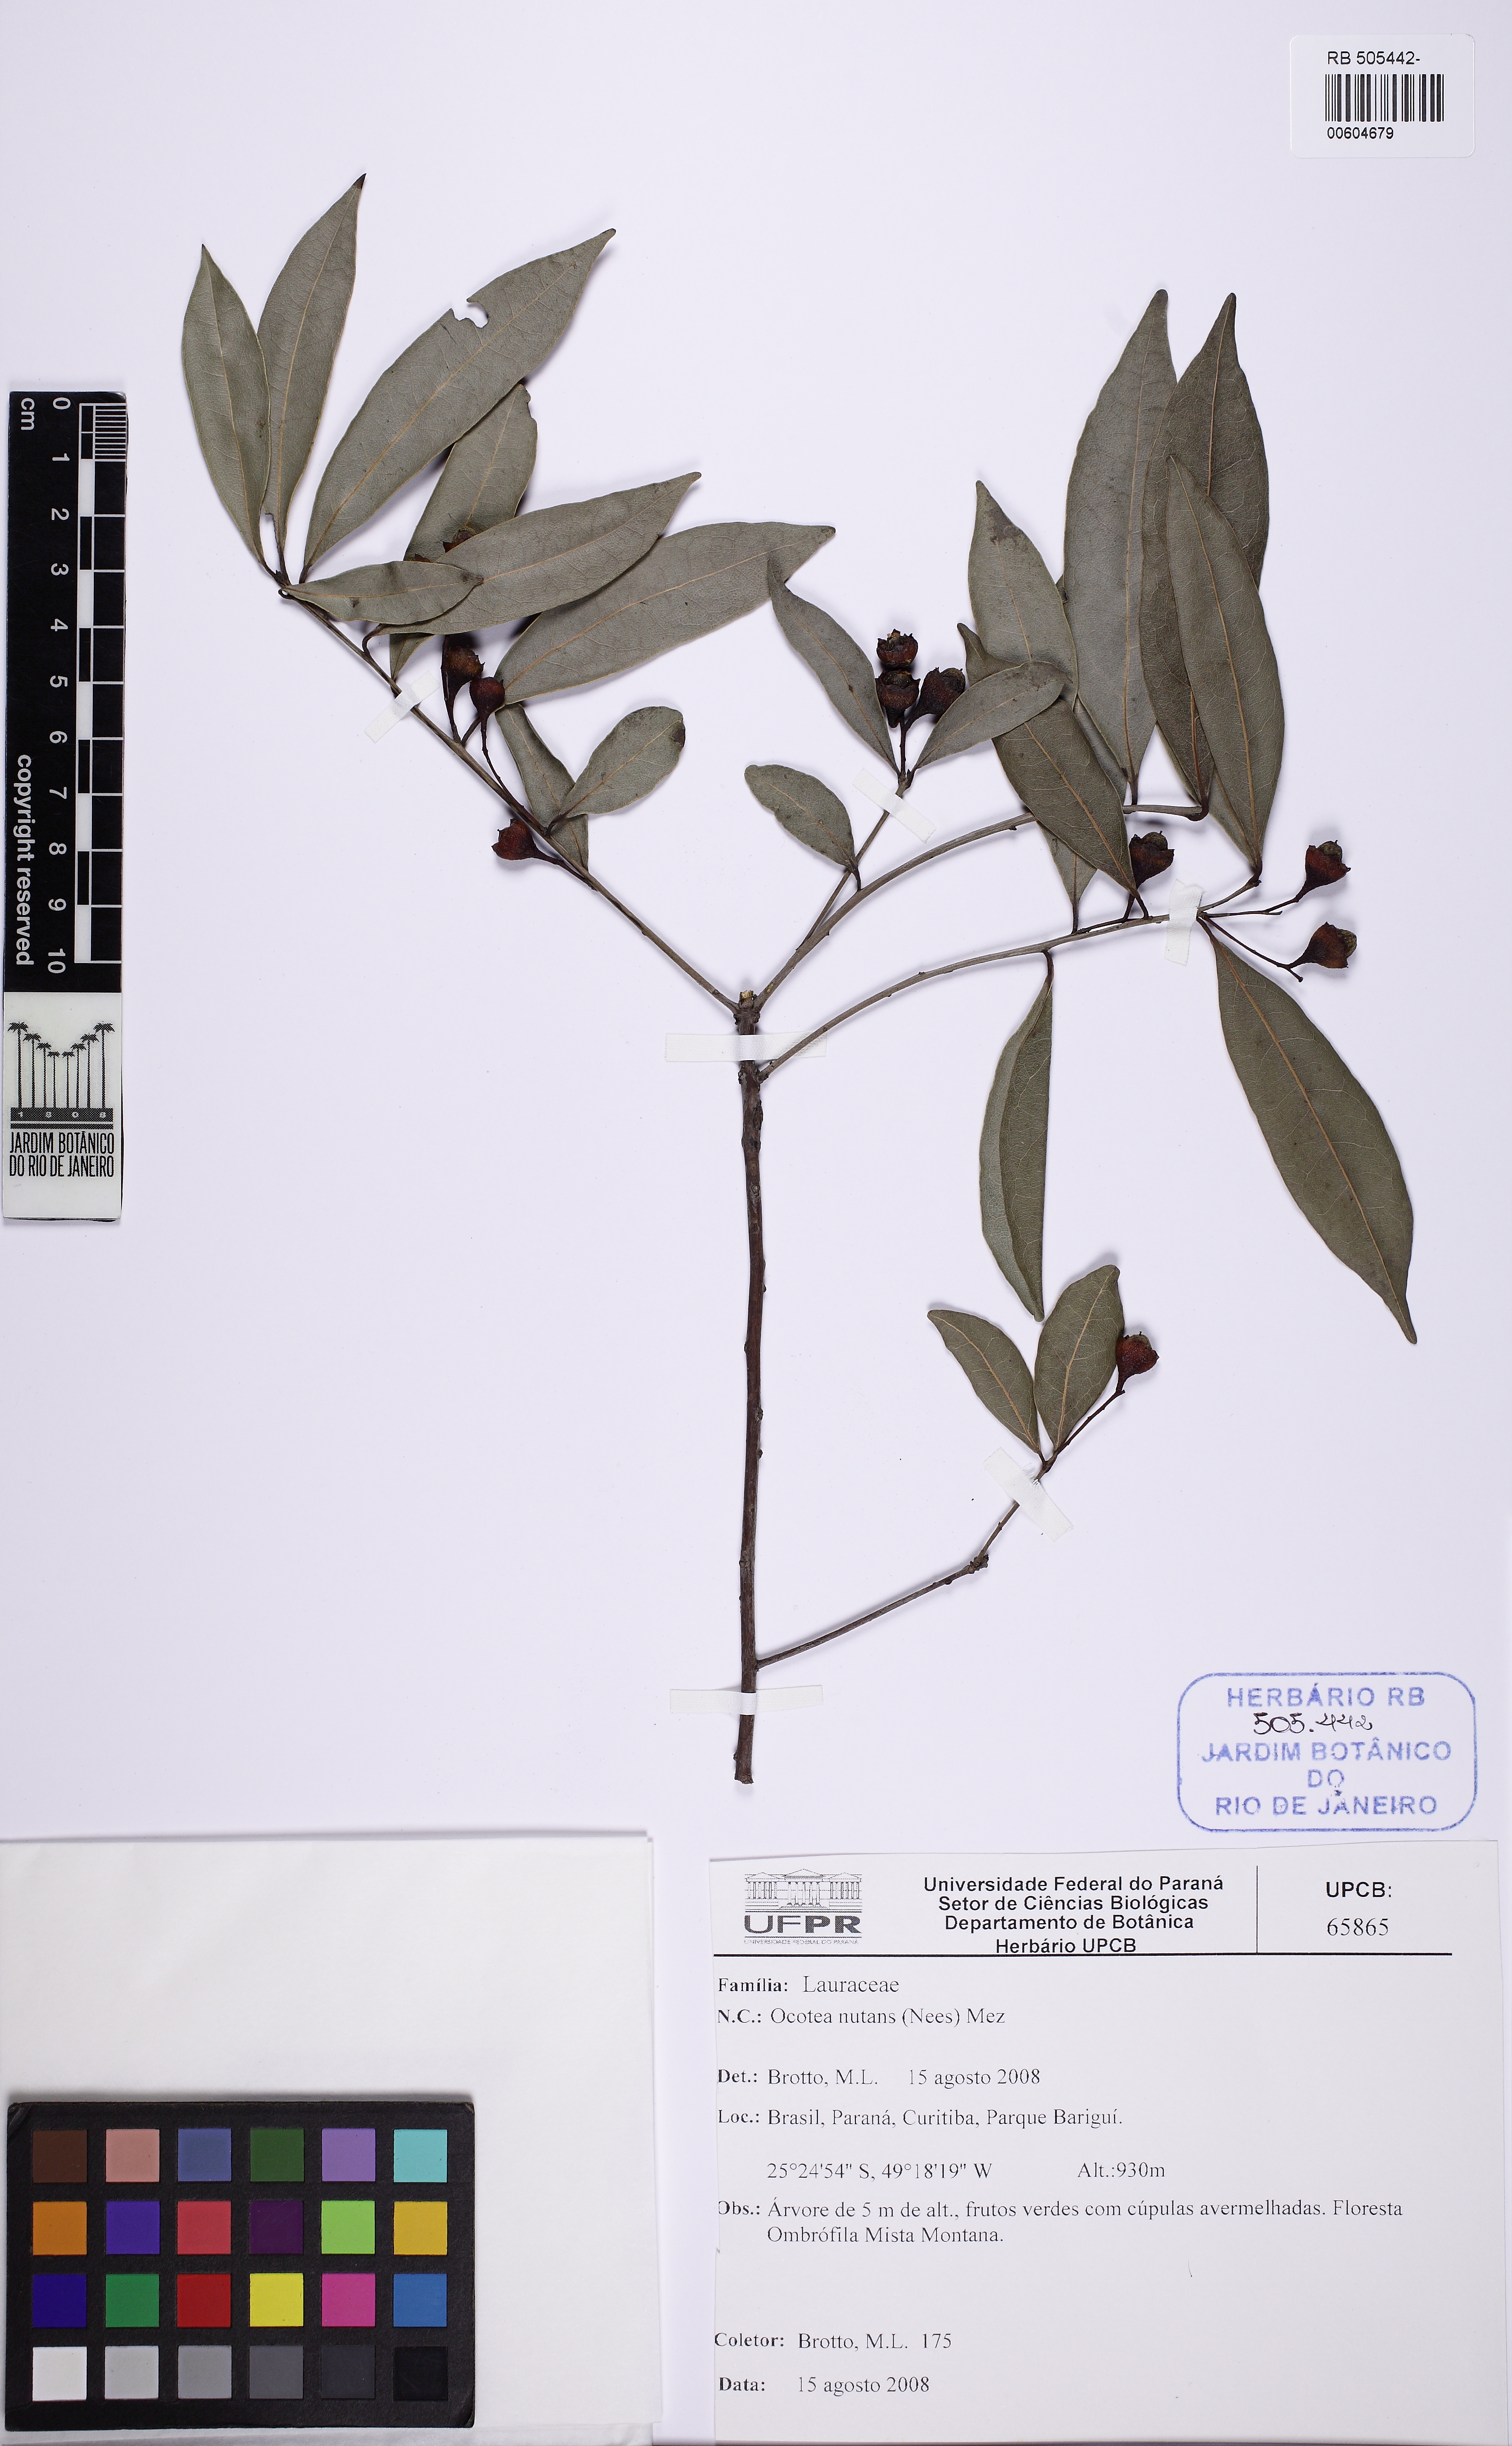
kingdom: Plantae
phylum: Tracheophyta
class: Magnoliopsida
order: Laurales
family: Lauraceae
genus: Mespilodaphne
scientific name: Mespilodaphne nutans
